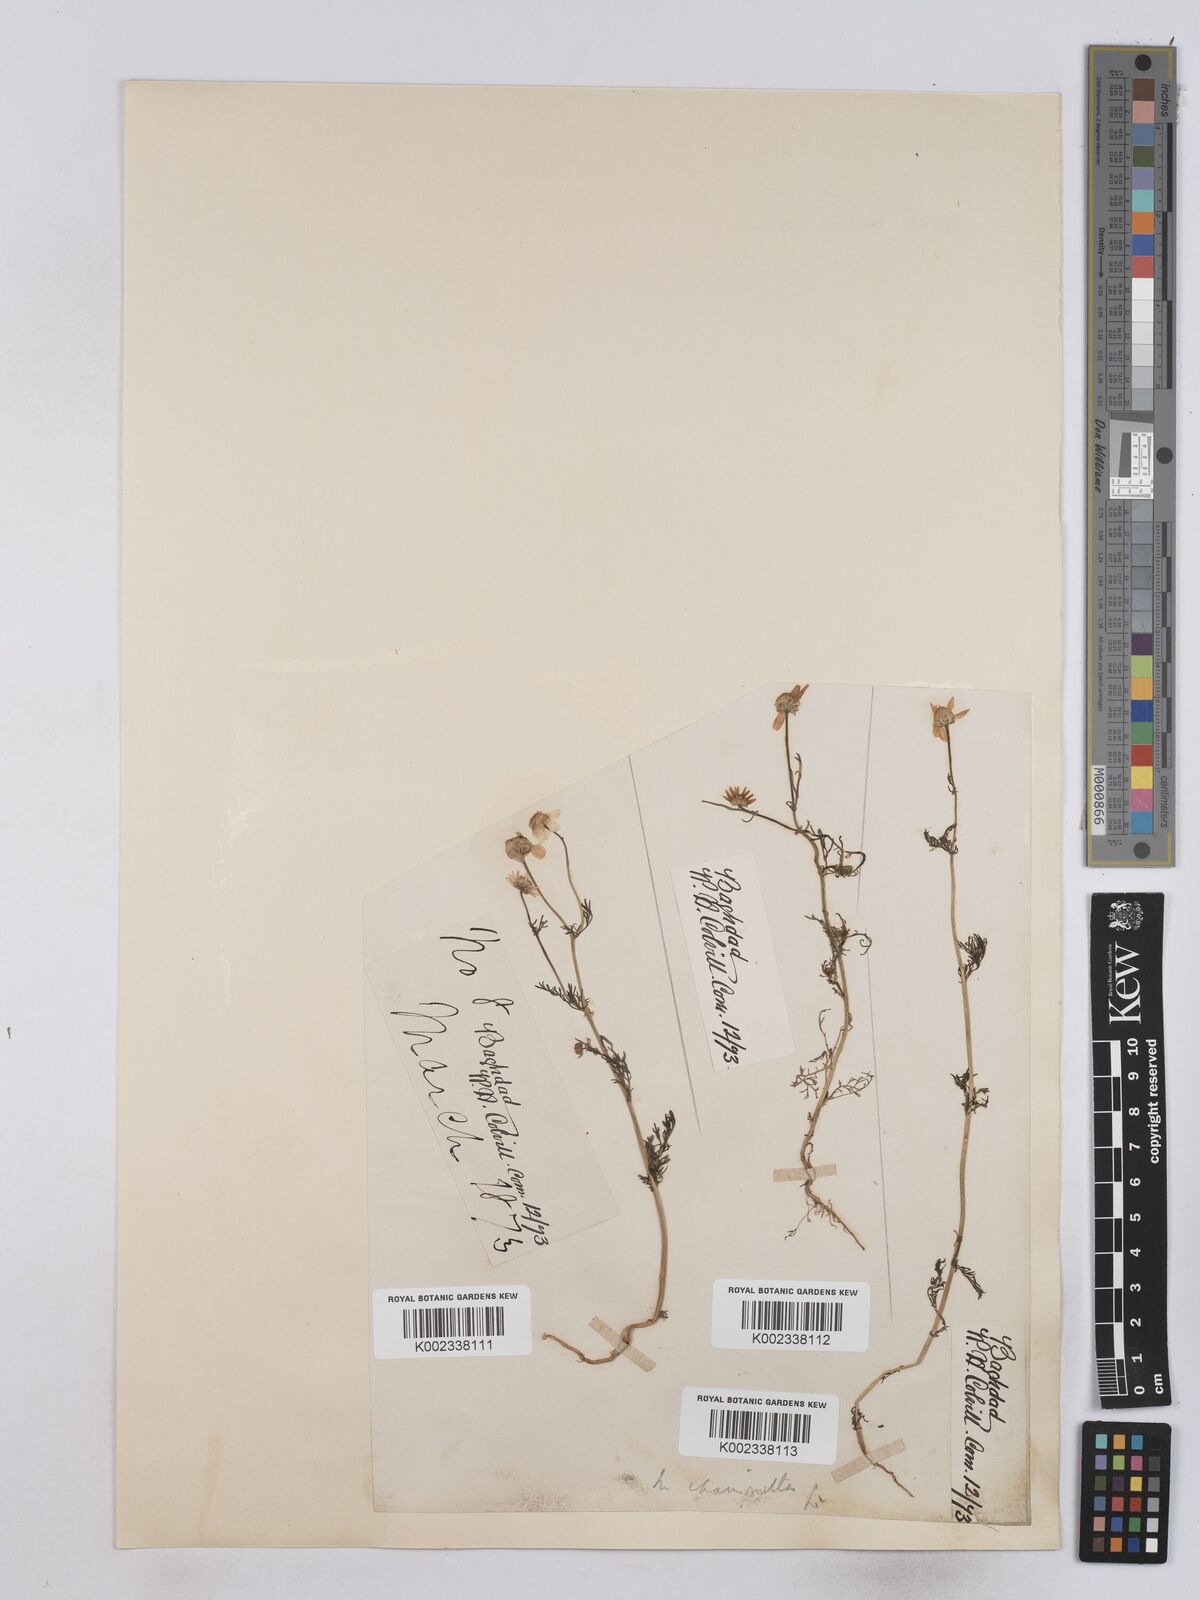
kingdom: Plantae
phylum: Tracheophyta
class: Magnoliopsida
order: Asterales
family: Asteraceae
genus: Matricaria
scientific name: Matricaria chamomilla
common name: Scented mayweed
